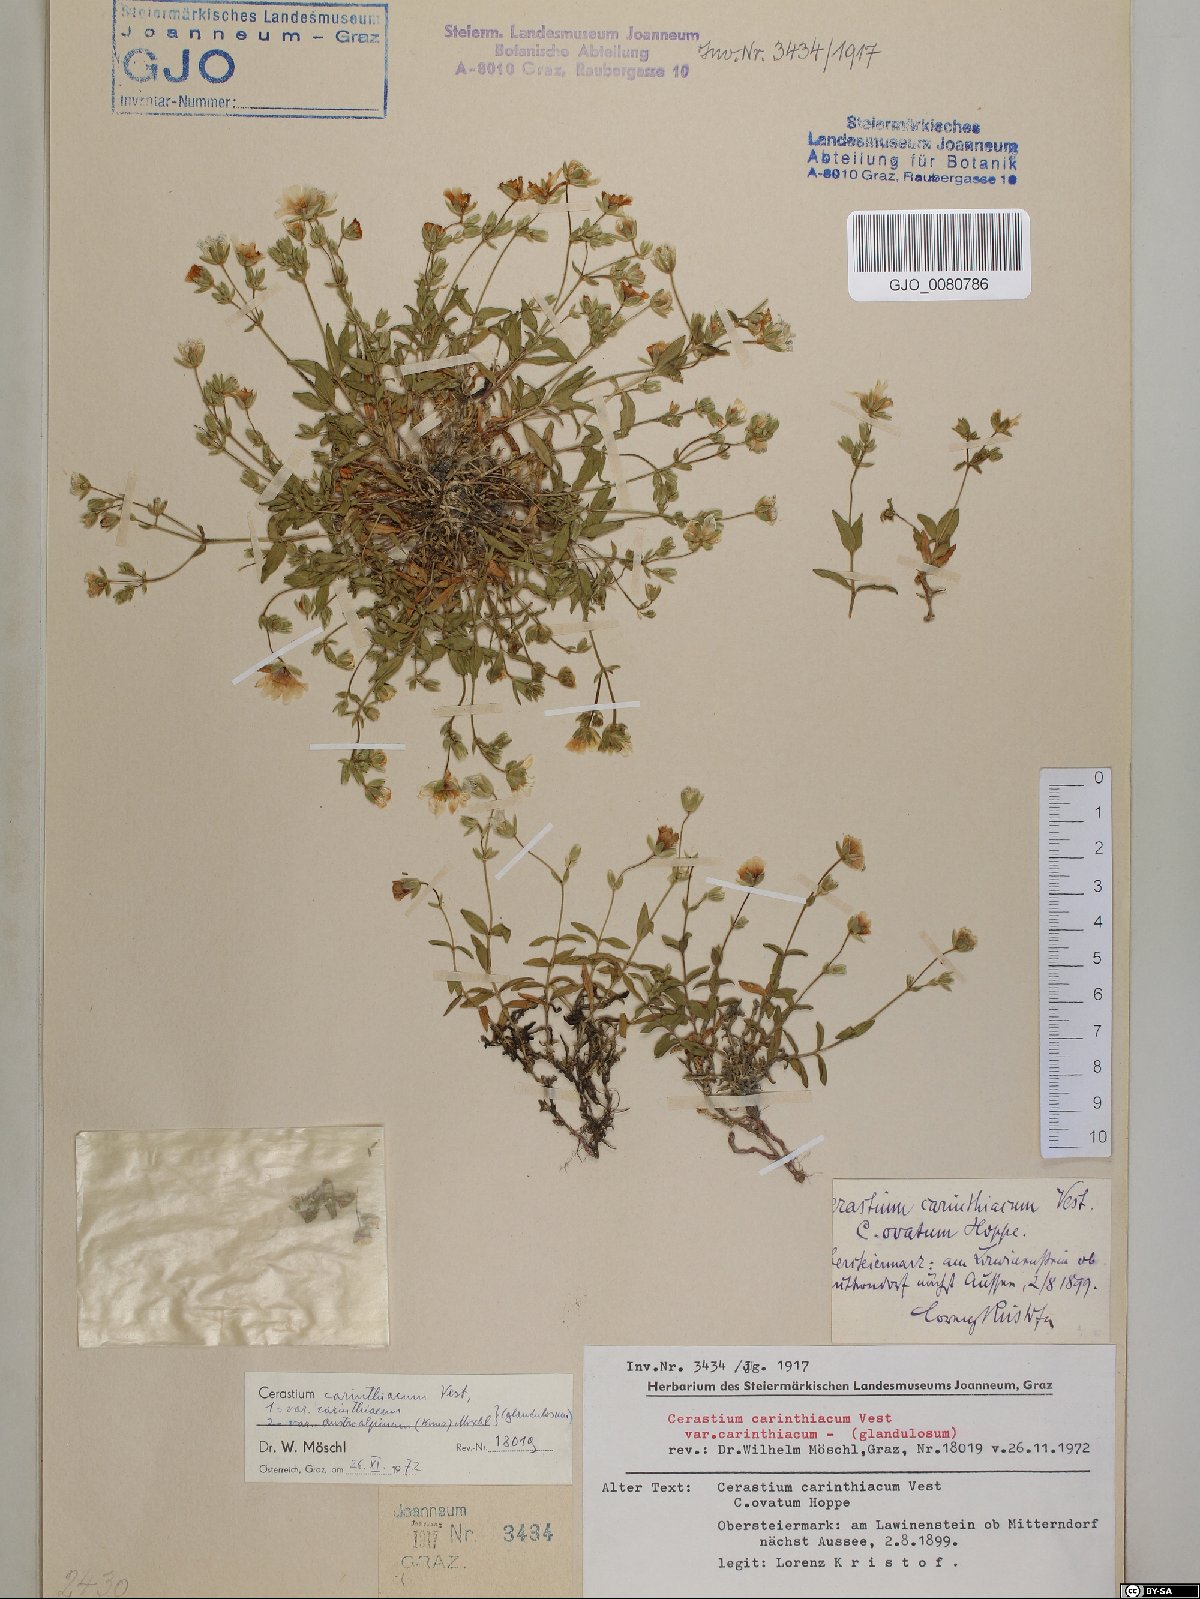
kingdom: Plantae
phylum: Tracheophyta
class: Magnoliopsida
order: Caryophyllales
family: Caryophyllaceae
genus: Cerastium
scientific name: Cerastium carinthiacum
